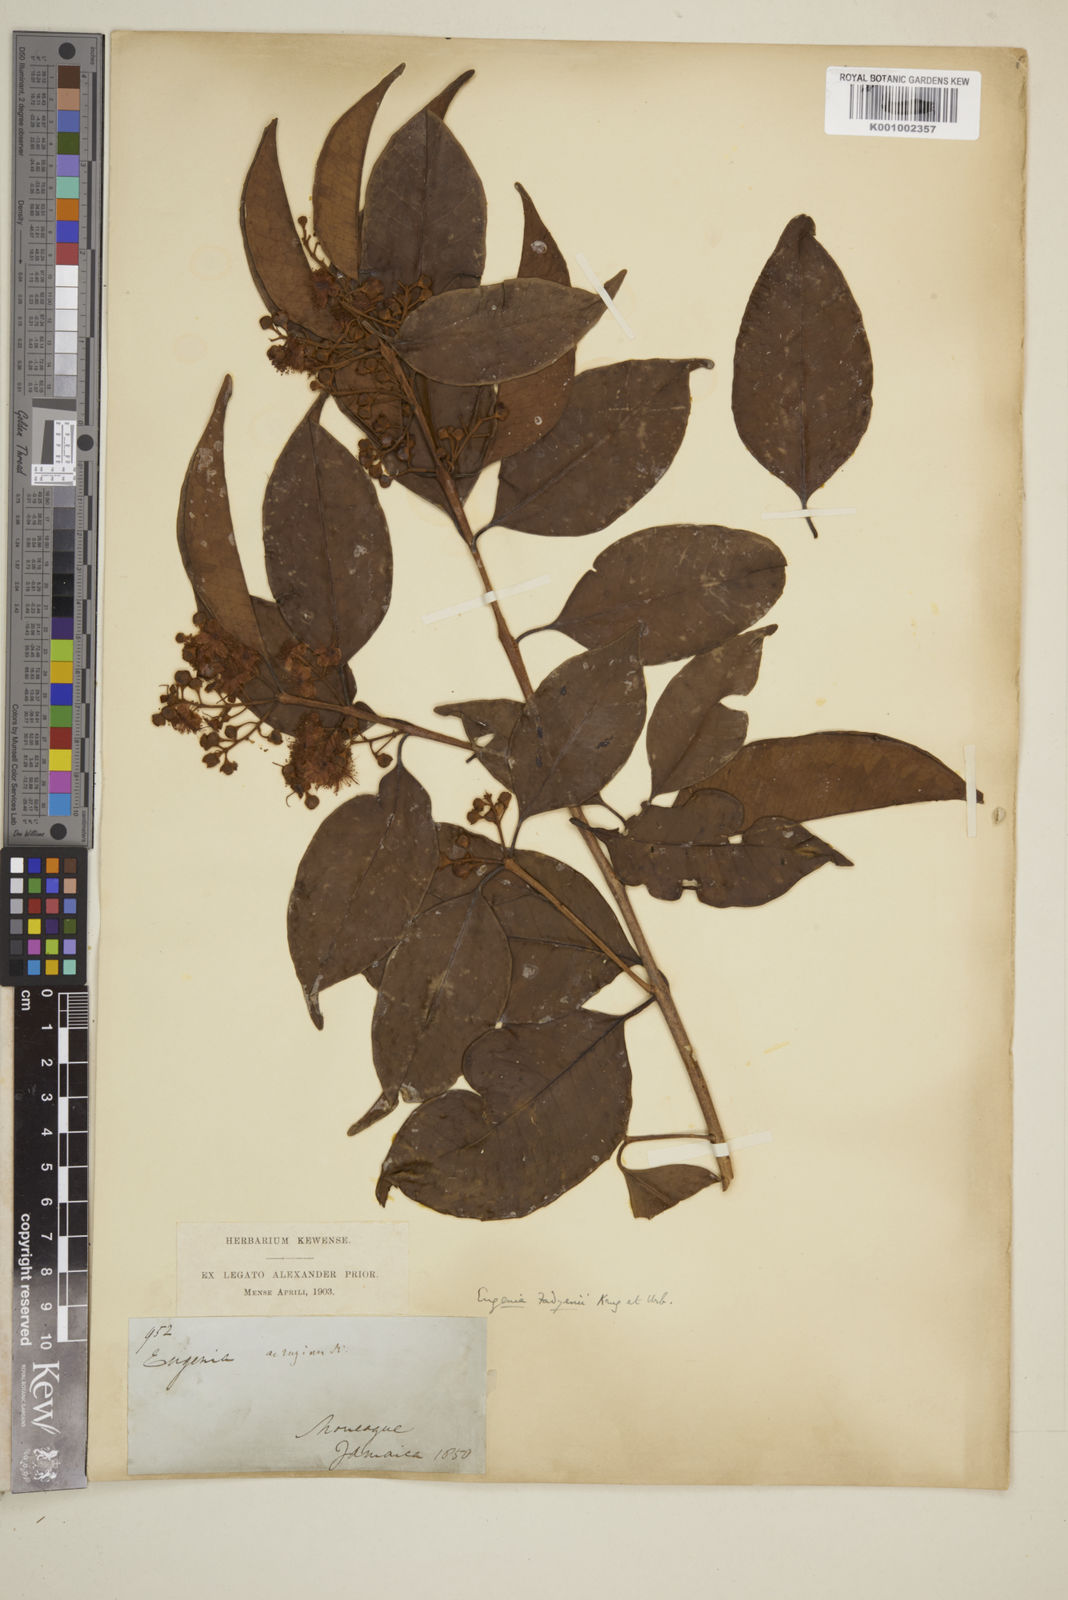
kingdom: Plantae
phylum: Tracheophyta
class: Magnoliopsida
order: Myrtales
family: Myrtaceae
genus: Eugenia
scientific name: Eugenia aeruginea
